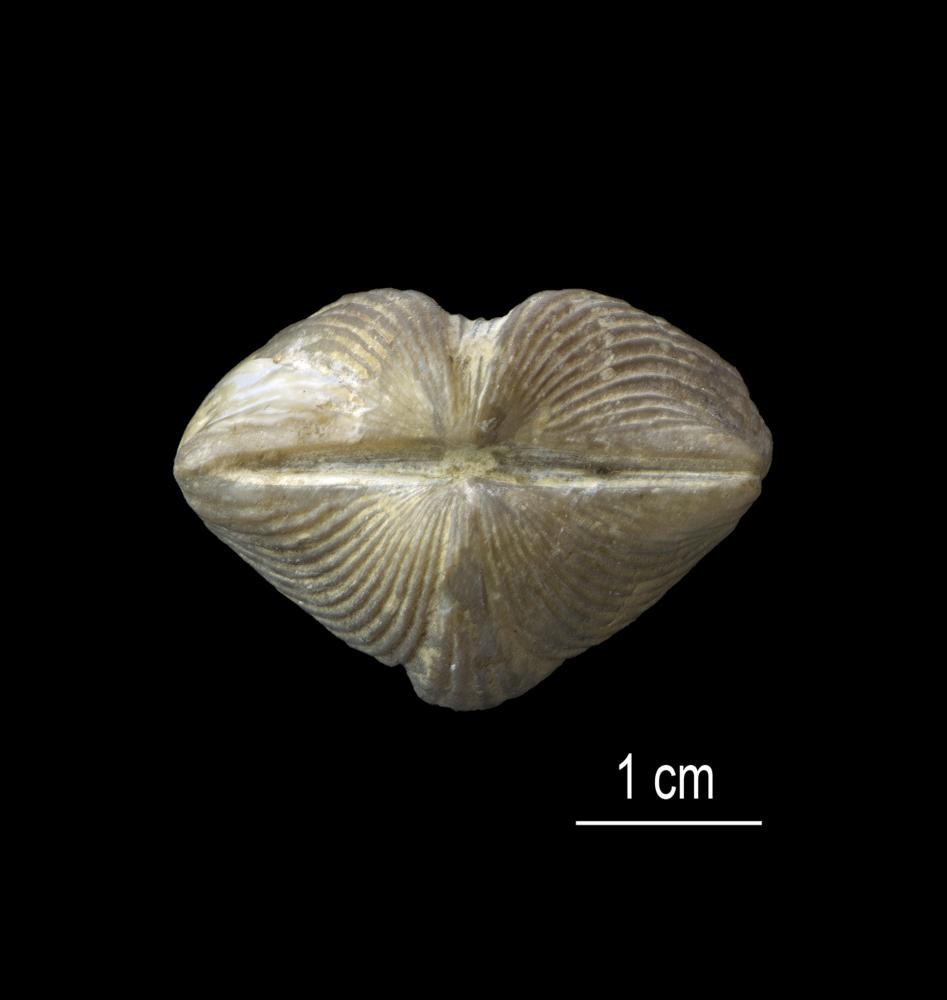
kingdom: Animalia
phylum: Brachiopoda
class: Rhynchonellata
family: Platystrophiidae
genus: Neoplatystrophia
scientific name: Neoplatystrophia Platystrophia lynx
